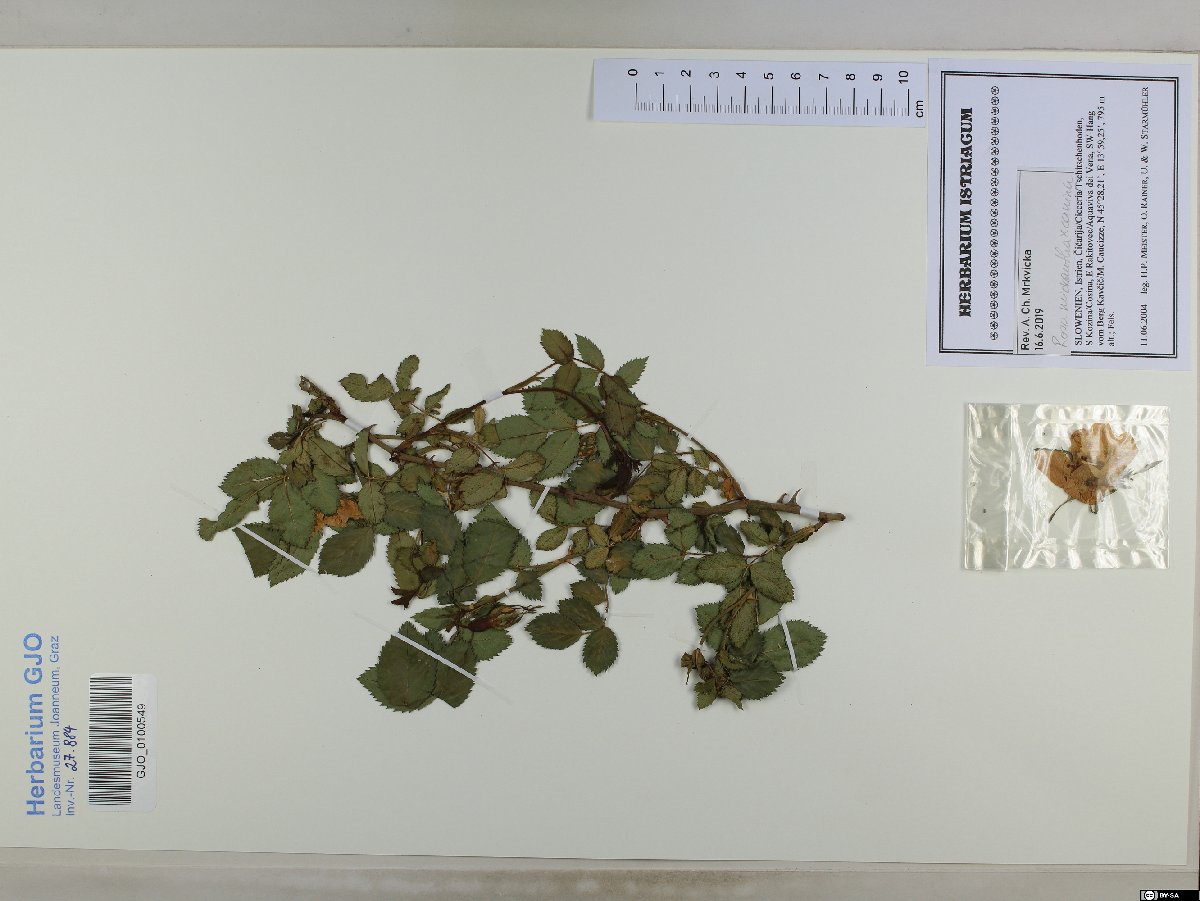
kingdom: Plantae
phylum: Tracheophyta
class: Magnoliopsida
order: Rosales
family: Rosaceae
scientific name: Rosaceae
